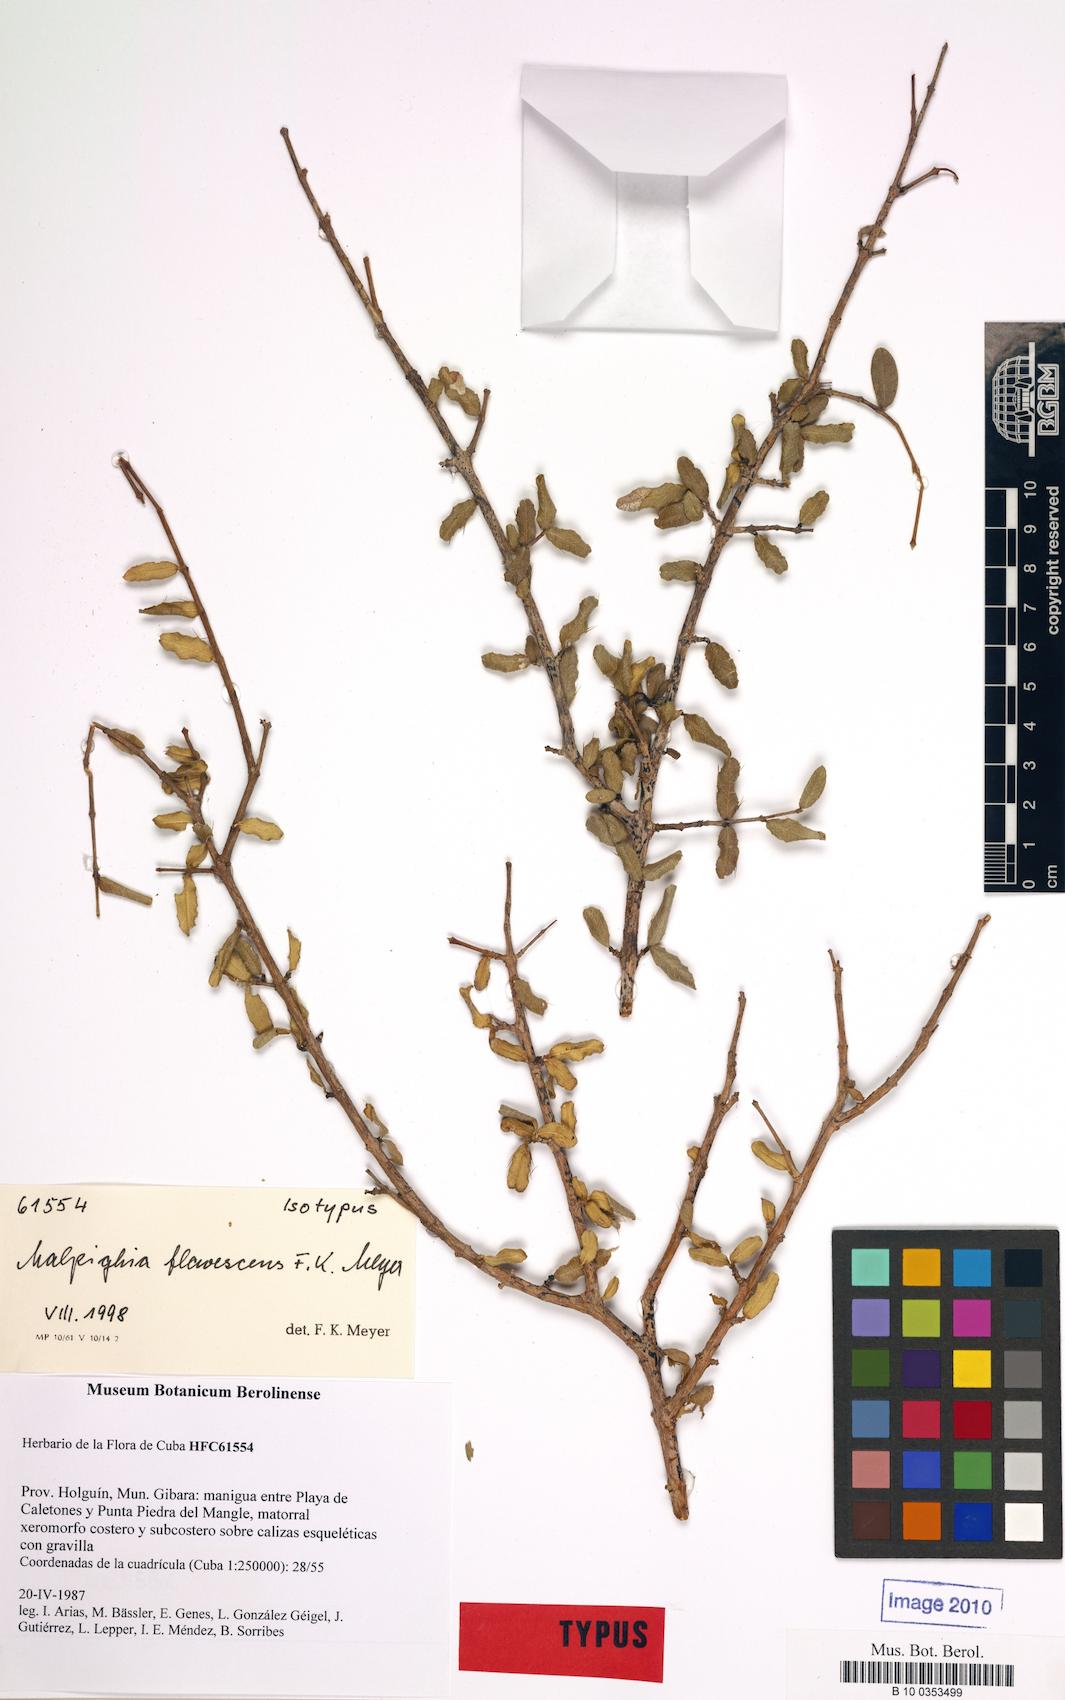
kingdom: Plantae
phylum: Tracheophyta
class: Magnoliopsida
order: Malpighiales
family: Malpighiaceae
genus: Malpighia
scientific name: Malpighia setosa
